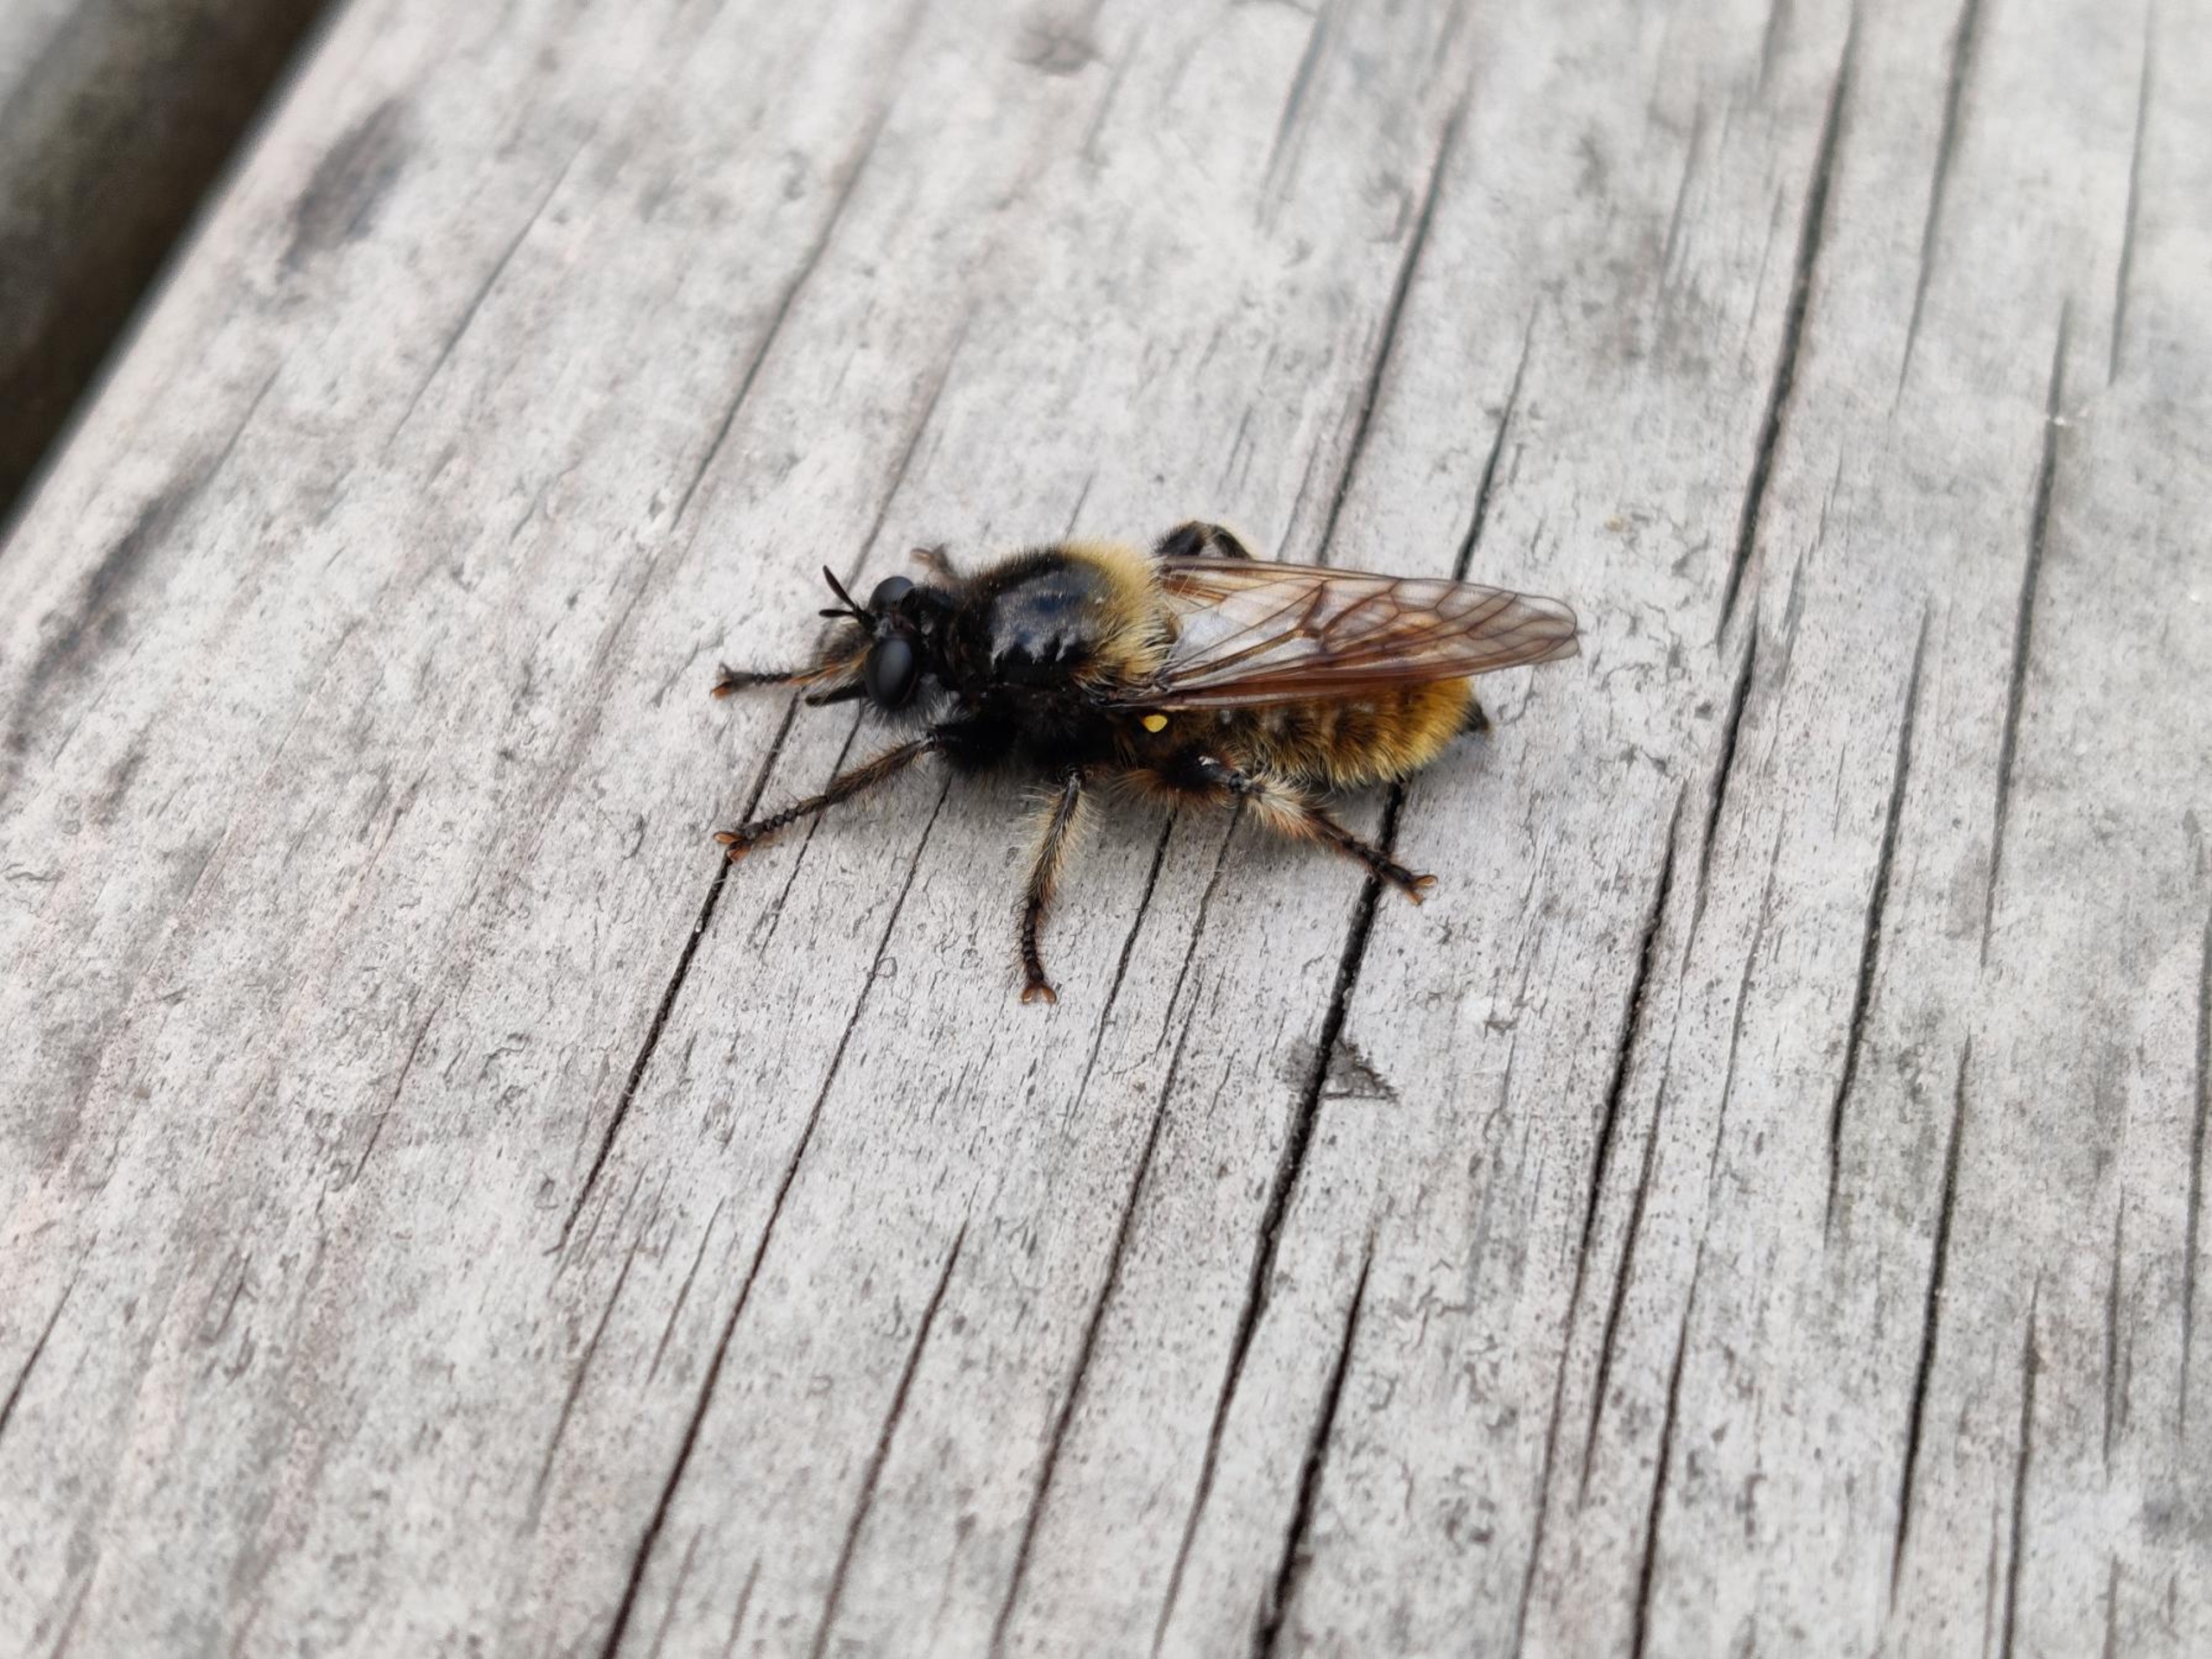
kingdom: Animalia
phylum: Arthropoda
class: Insecta
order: Diptera
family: Asilidae
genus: Laphria
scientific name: Laphria flava
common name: Gul vedrovflue
